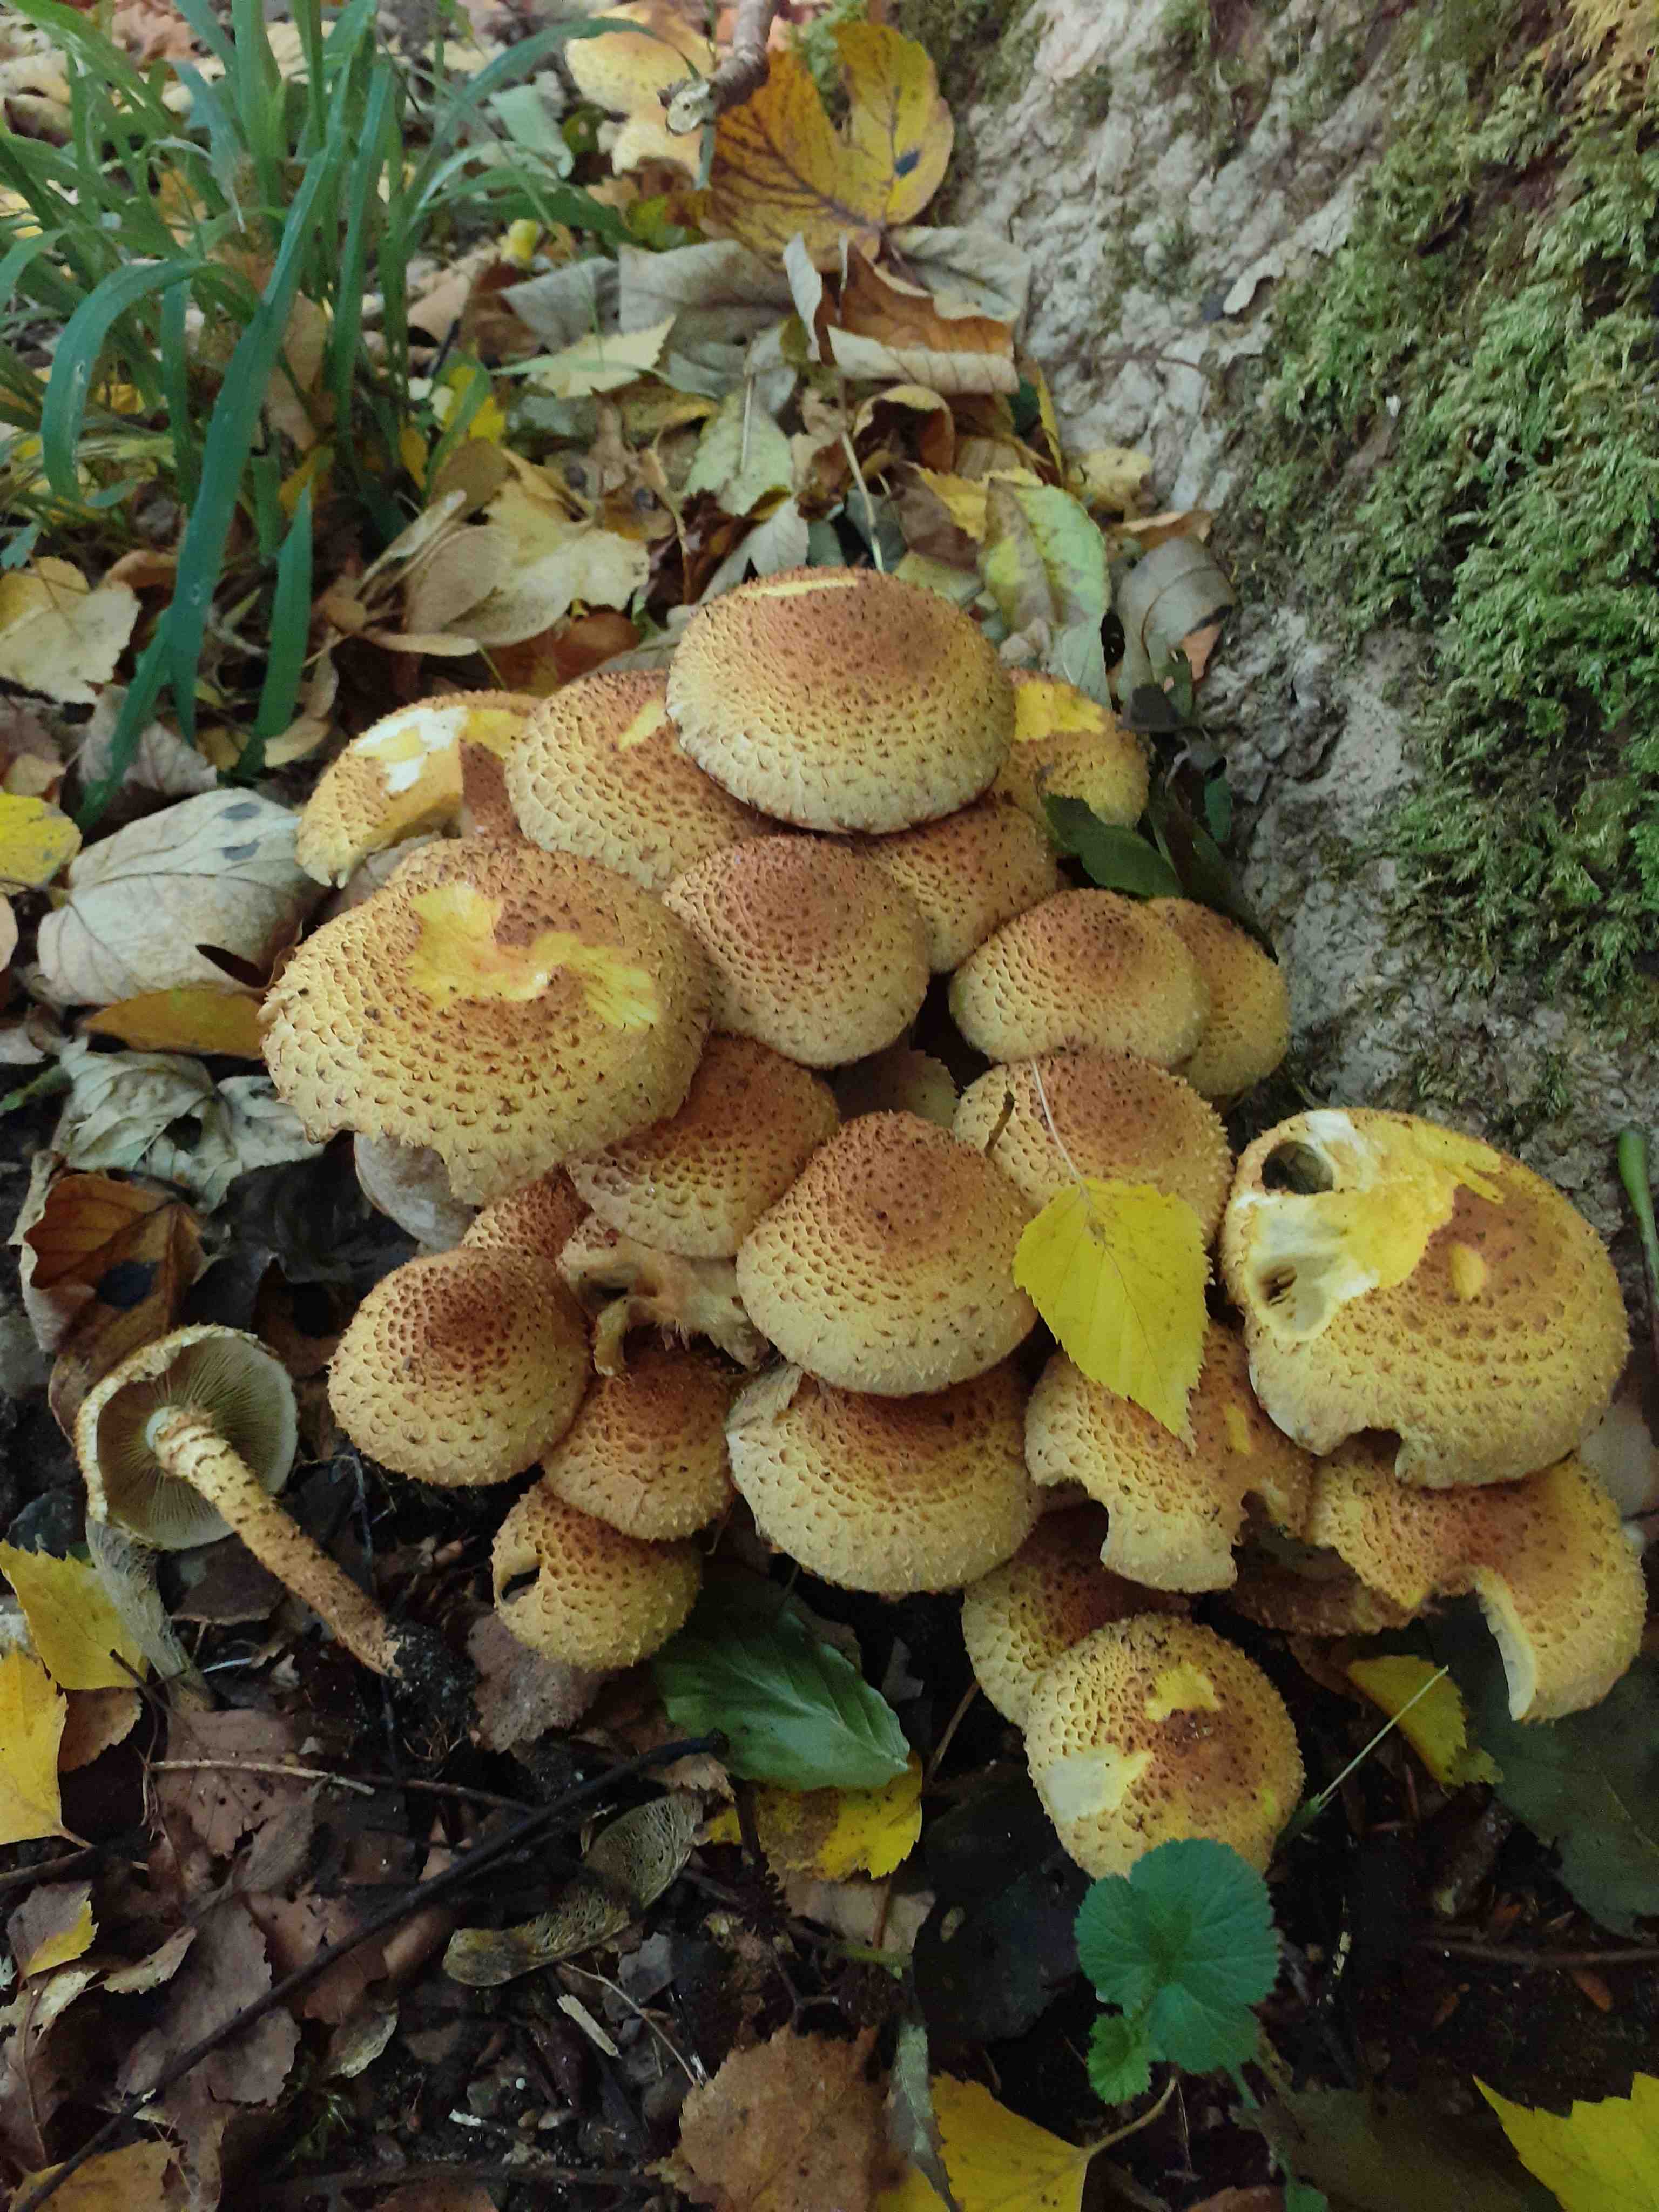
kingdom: Fungi
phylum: Basidiomycota
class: Agaricomycetes
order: Agaricales
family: Strophariaceae
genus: Pholiota
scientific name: Pholiota squarrosa
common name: krumskællet skælhat
